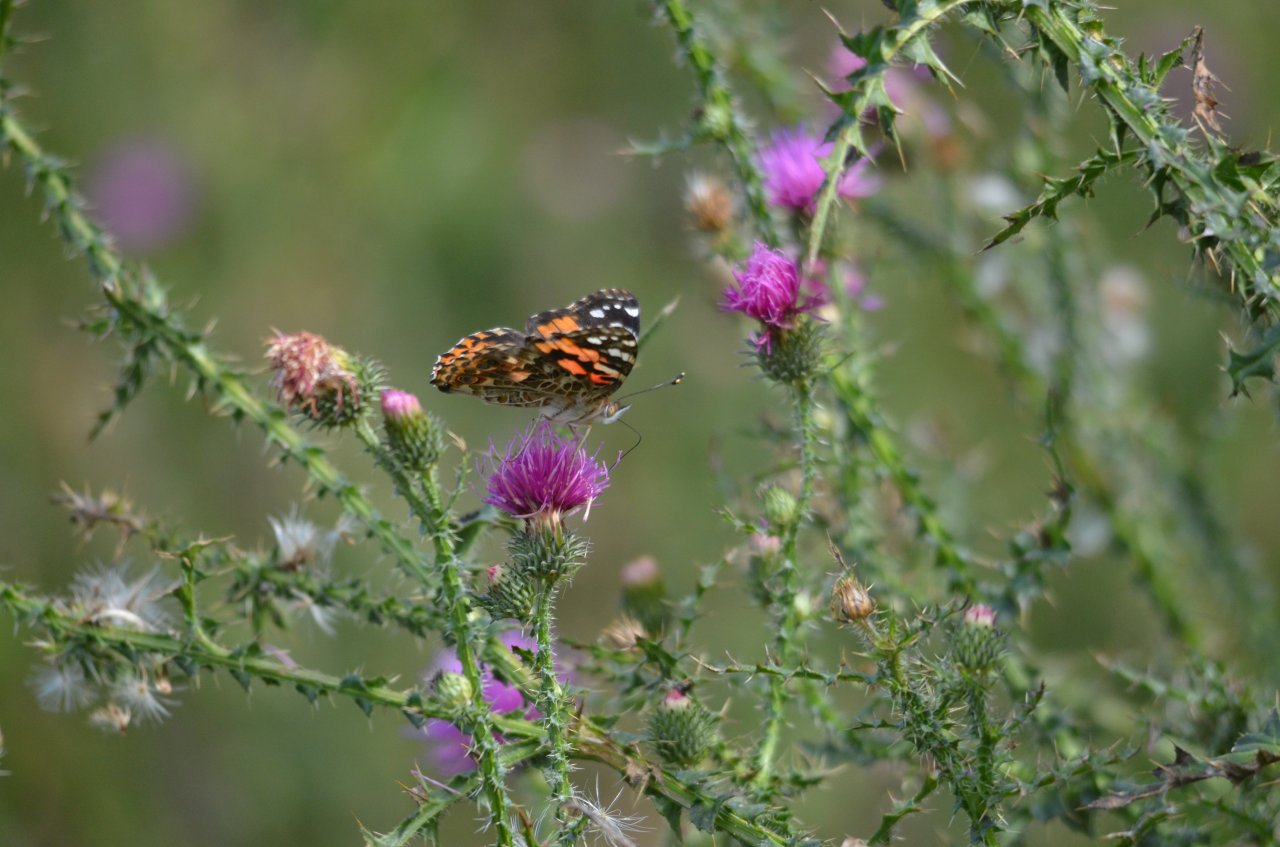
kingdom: Animalia
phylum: Arthropoda
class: Insecta
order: Lepidoptera
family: Nymphalidae
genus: Vanessa
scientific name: Vanessa cardui
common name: Painted Lady
